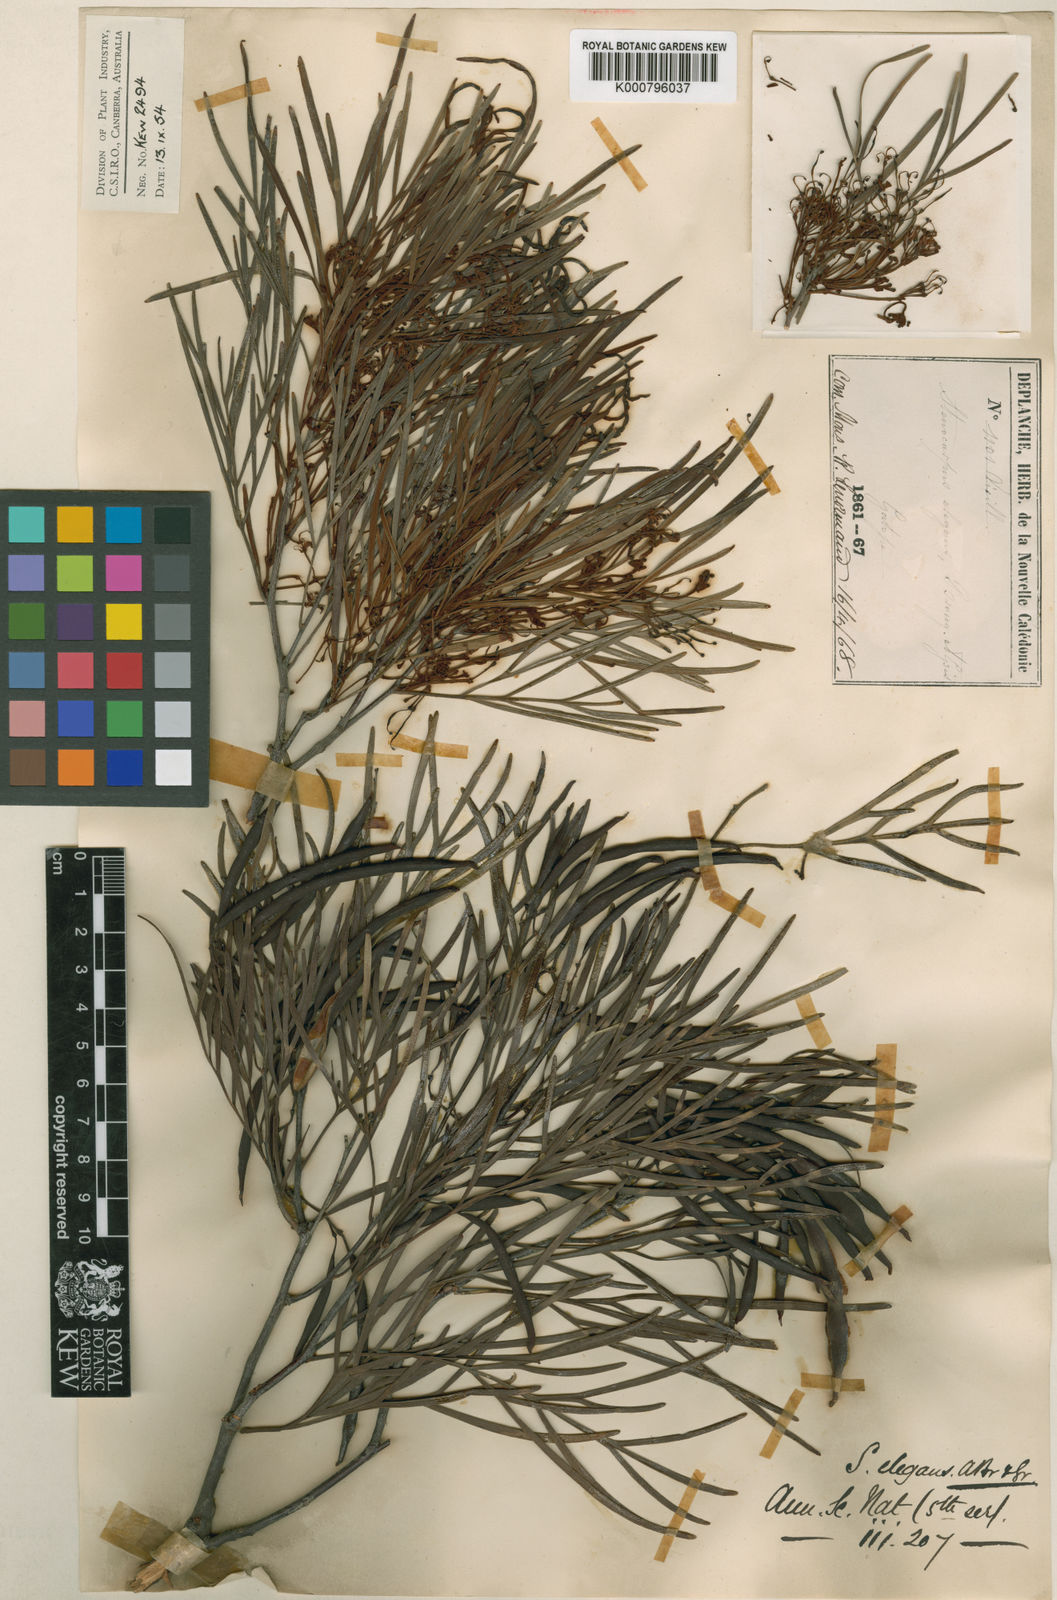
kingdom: Plantae
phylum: Tracheophyta
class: Magnoliopsida
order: Proteales
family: Proteaceae
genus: Stenocarpus
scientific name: Stenocarpus milnei
